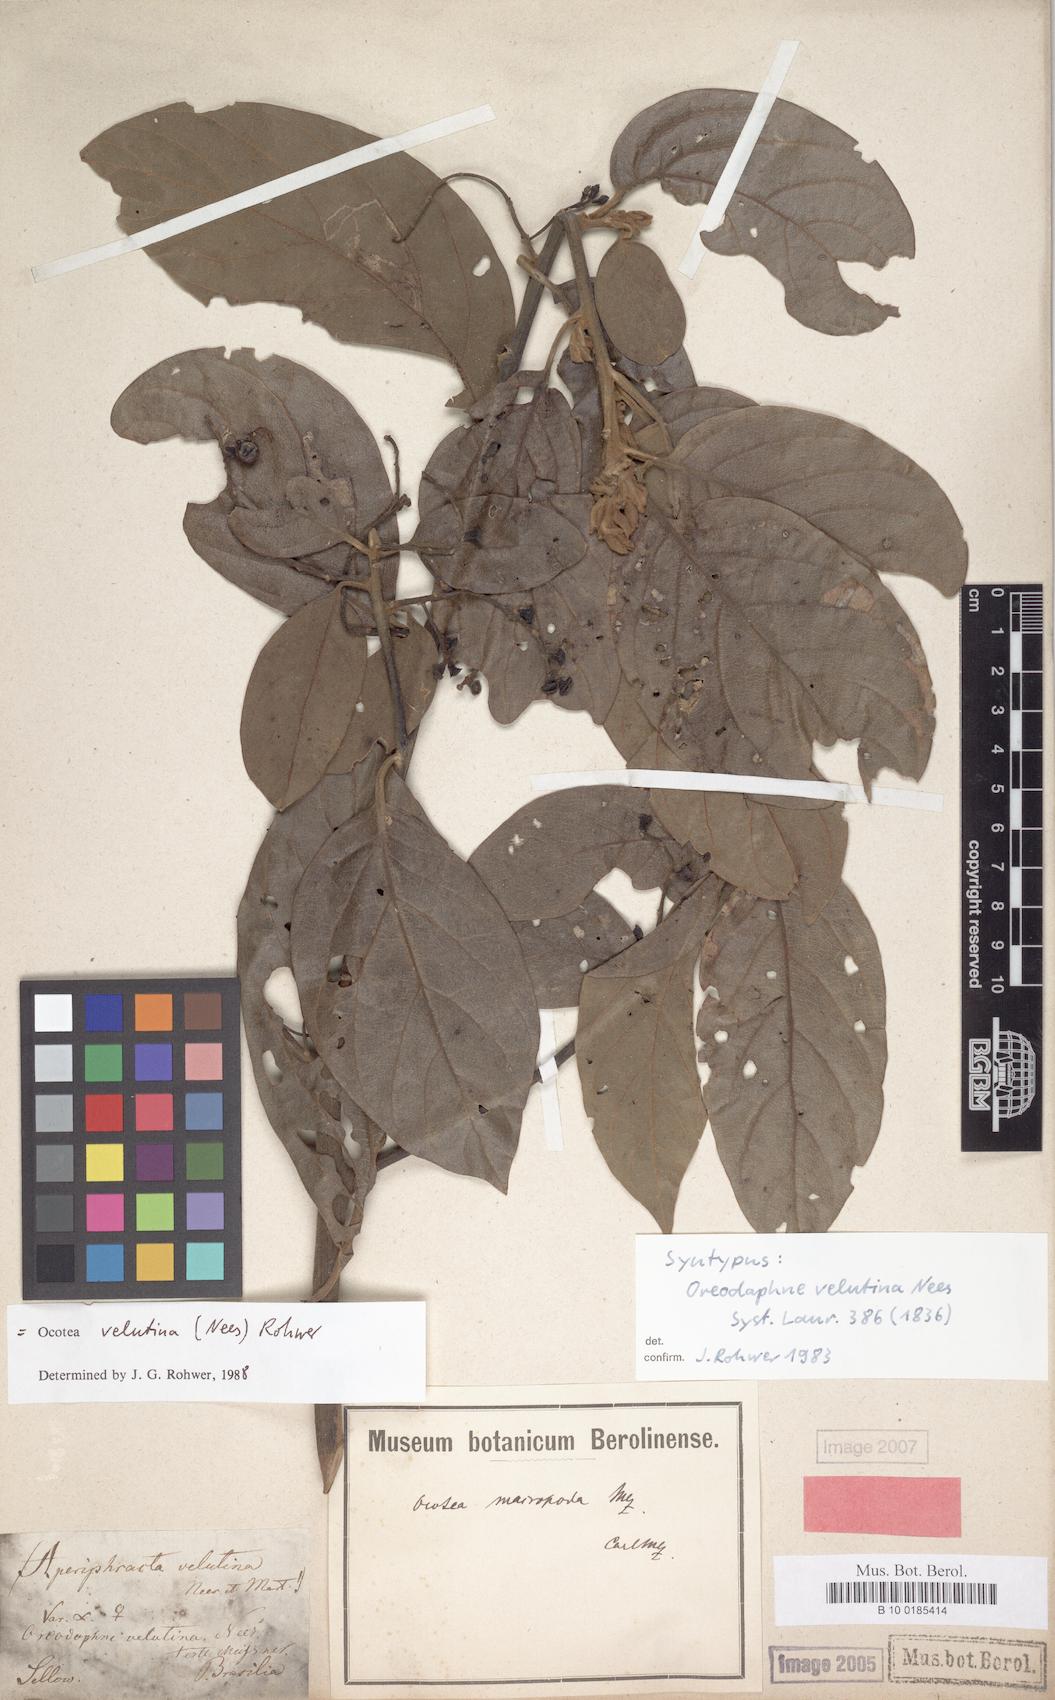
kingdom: Plantae
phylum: Tracheophyta
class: Magnoliopsida
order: Laurales
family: Lauraceae
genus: Andea
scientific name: Andea velutina
